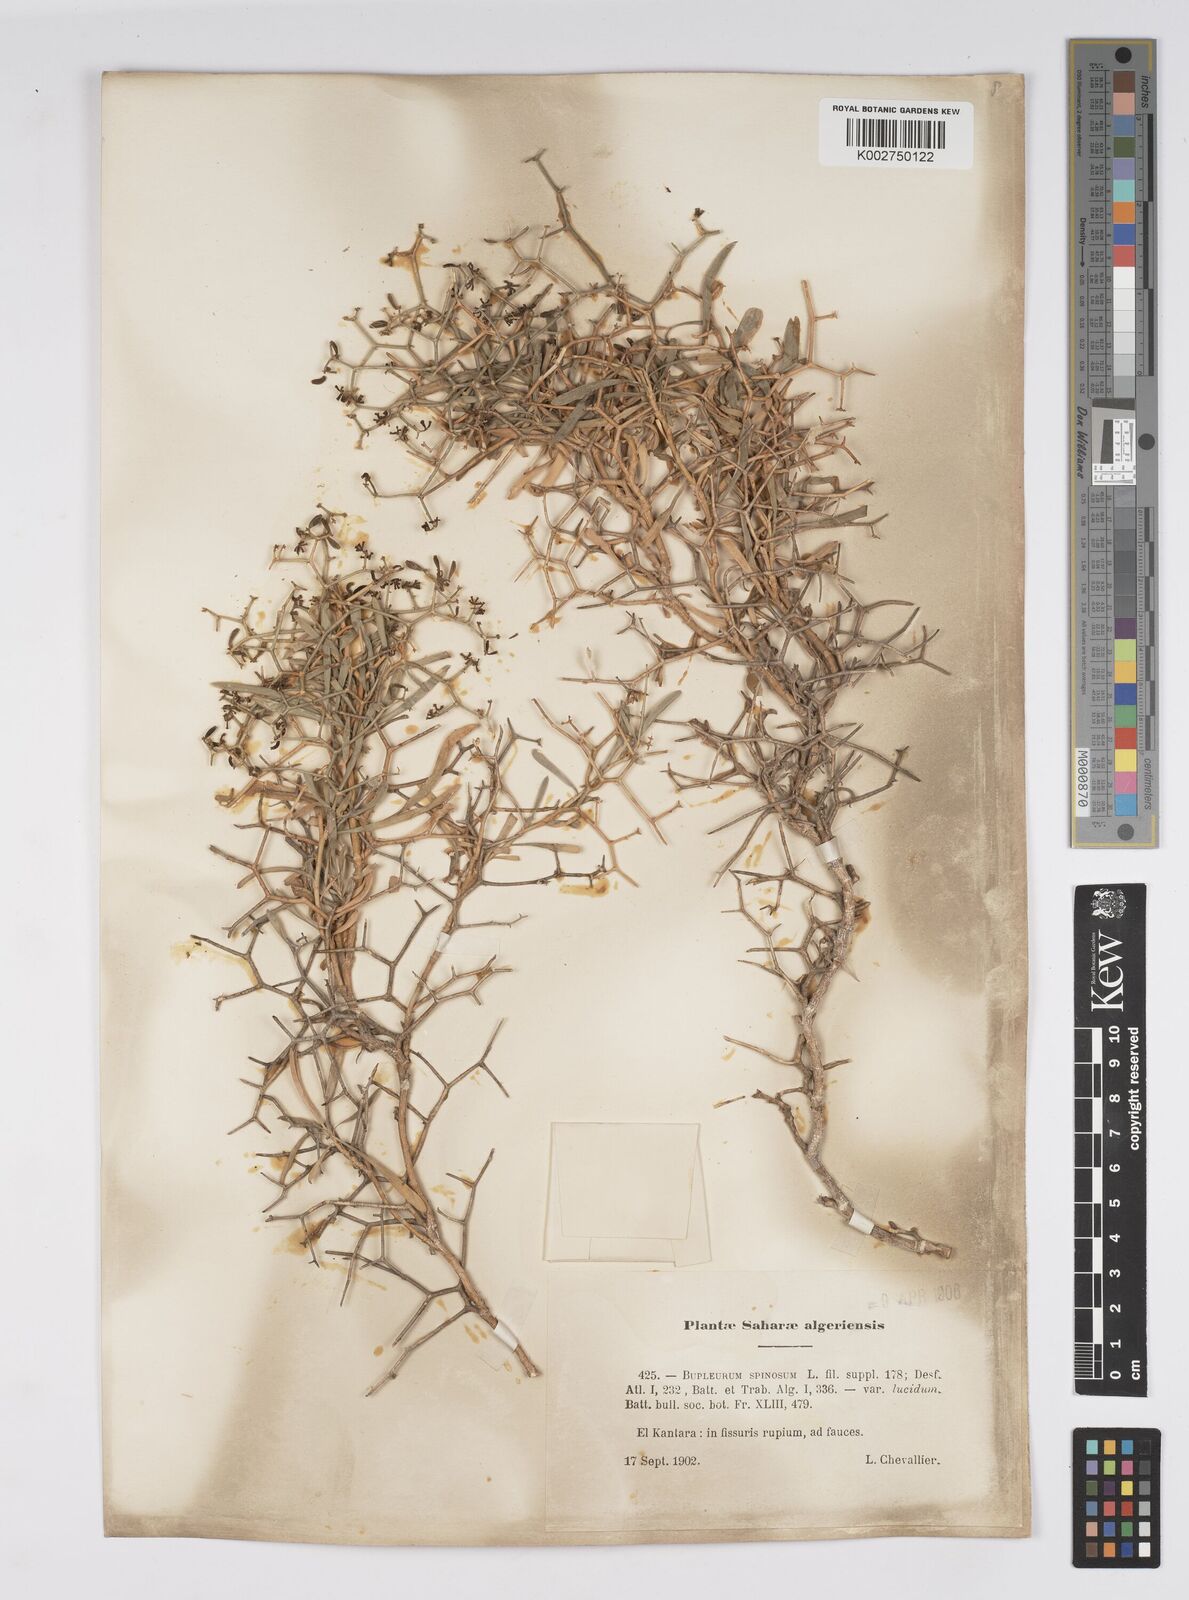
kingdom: Plantae
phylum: Tracheophyta
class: Magnoliopsida
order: Apiales
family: Apiaceae
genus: Bupleurum
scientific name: Bupleurum fruticescens
